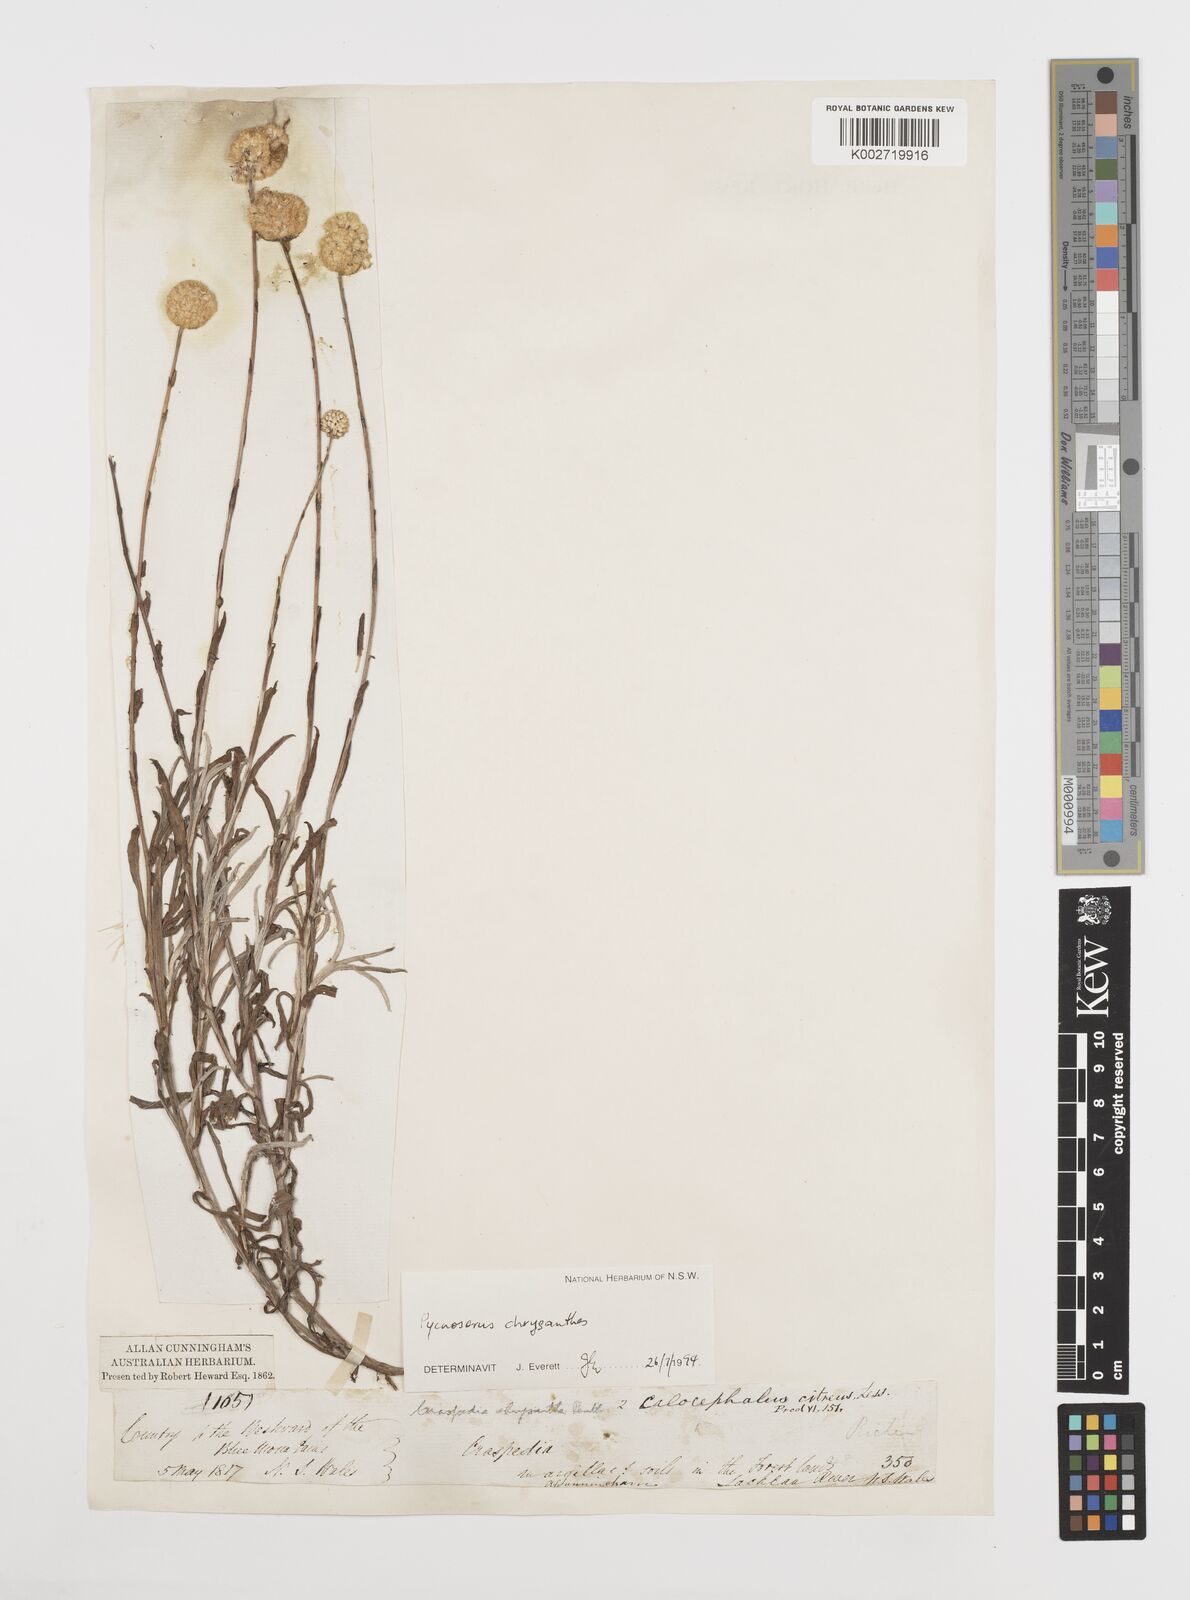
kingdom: Plantae
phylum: Tracheophyta
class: Magnoliopsida
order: Asterales
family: Asteraceae
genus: Pycnosorus
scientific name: Pycnosorus chrysanthus
